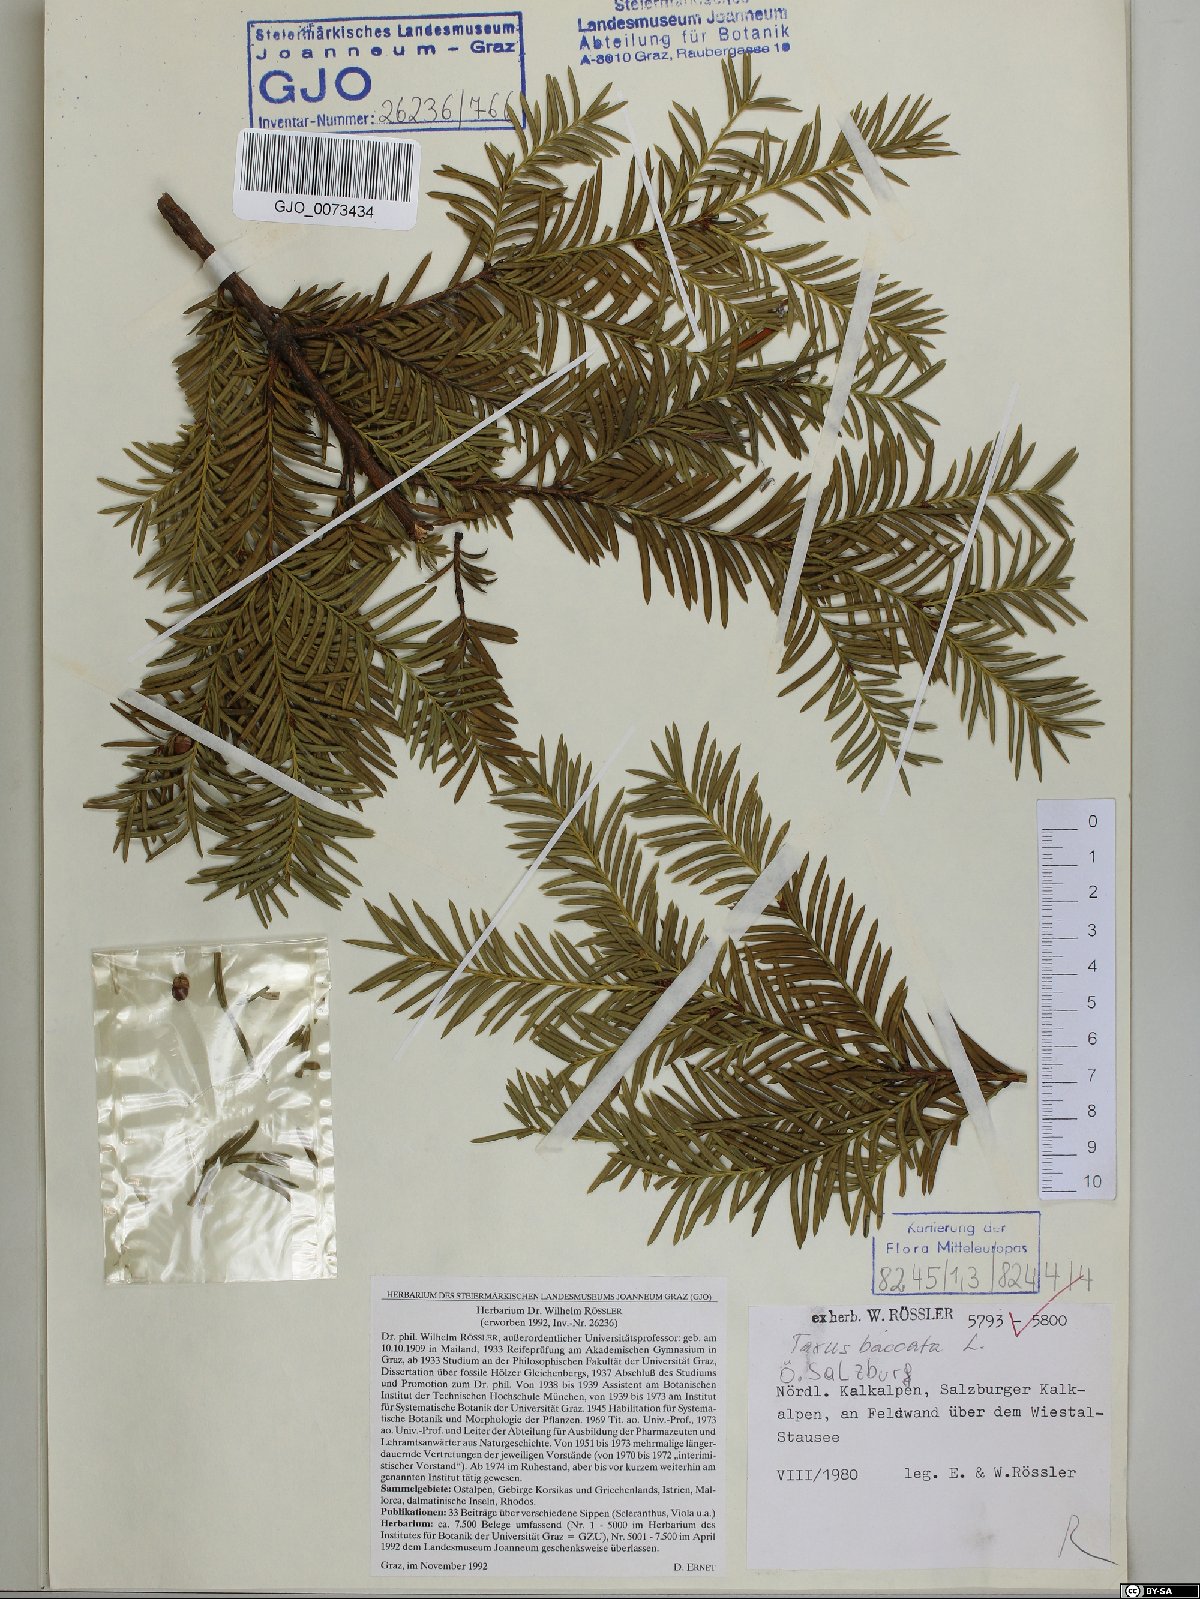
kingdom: Plantae
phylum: Tracheophyta
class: Pinopsida
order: Pinales
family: Taxaceae
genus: Taxus
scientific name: Taxus baccata
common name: Yew
